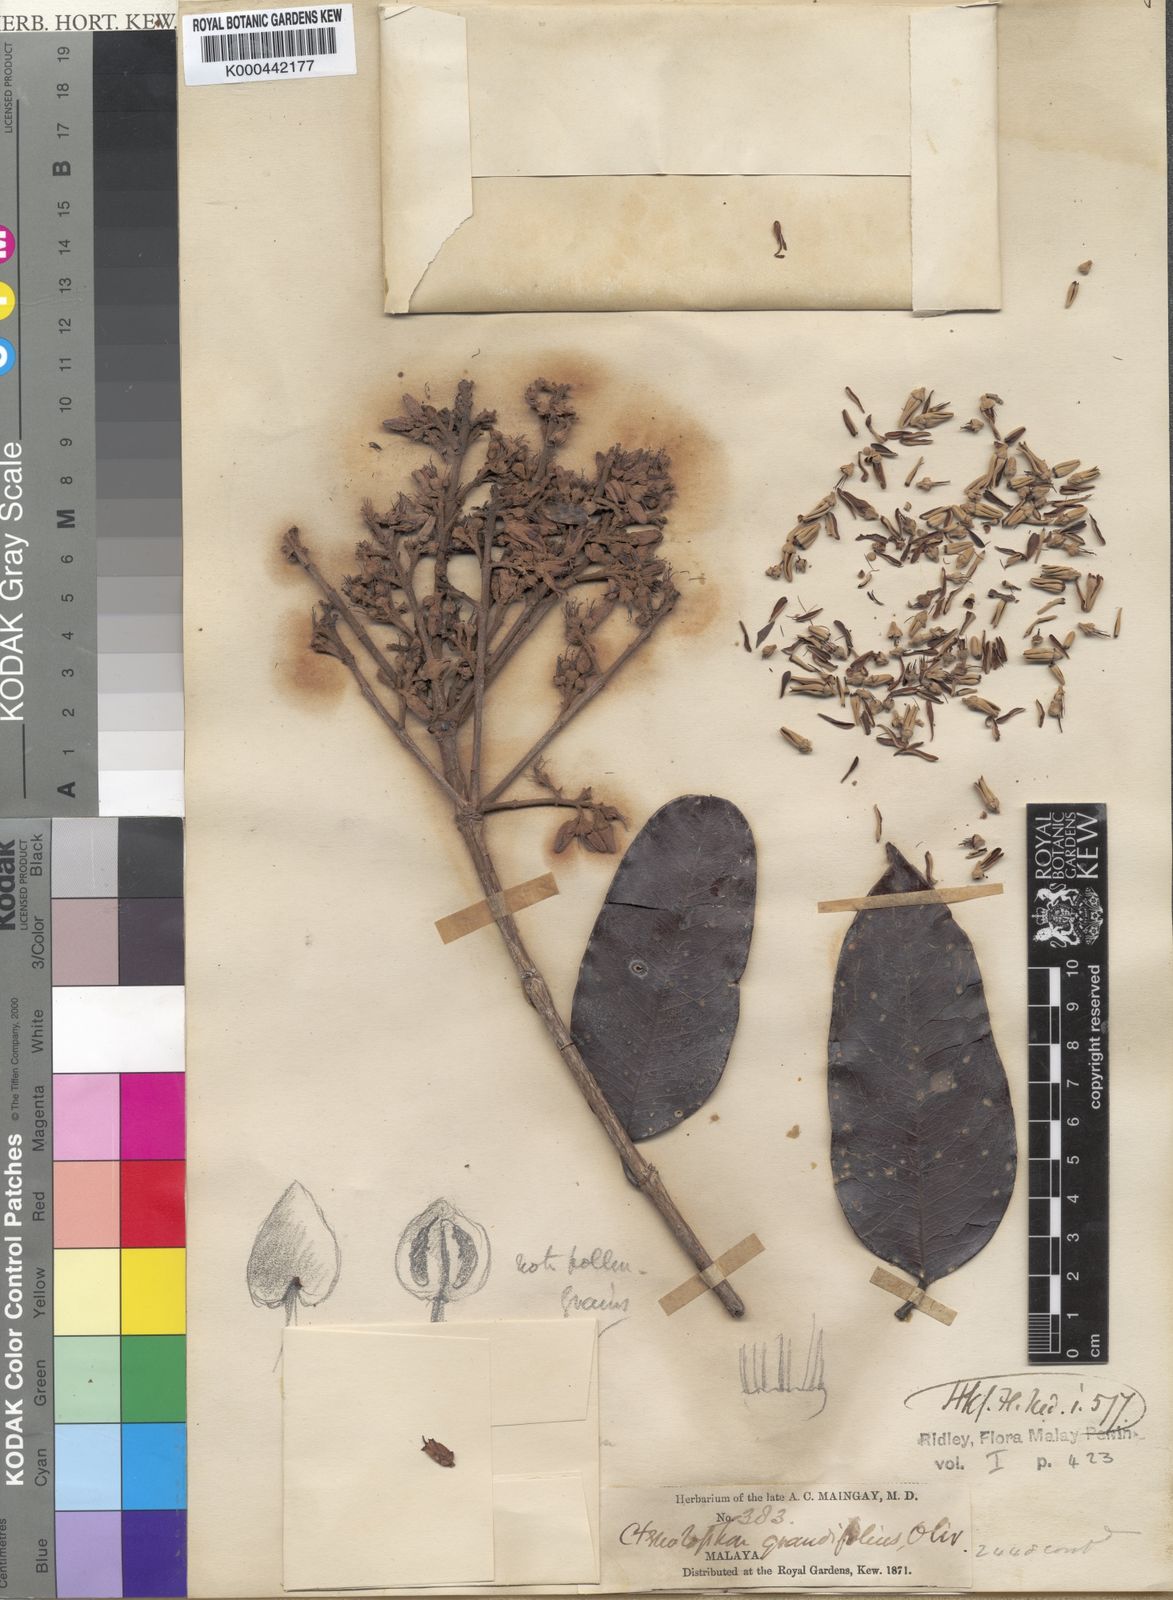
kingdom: Plantae
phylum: Tracheophyta
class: Magnoliopsida
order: Malpighiales
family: Ctenolophonaceae
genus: Ctenolophon
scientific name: Ctenolophon parvifolius
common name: Mertas
